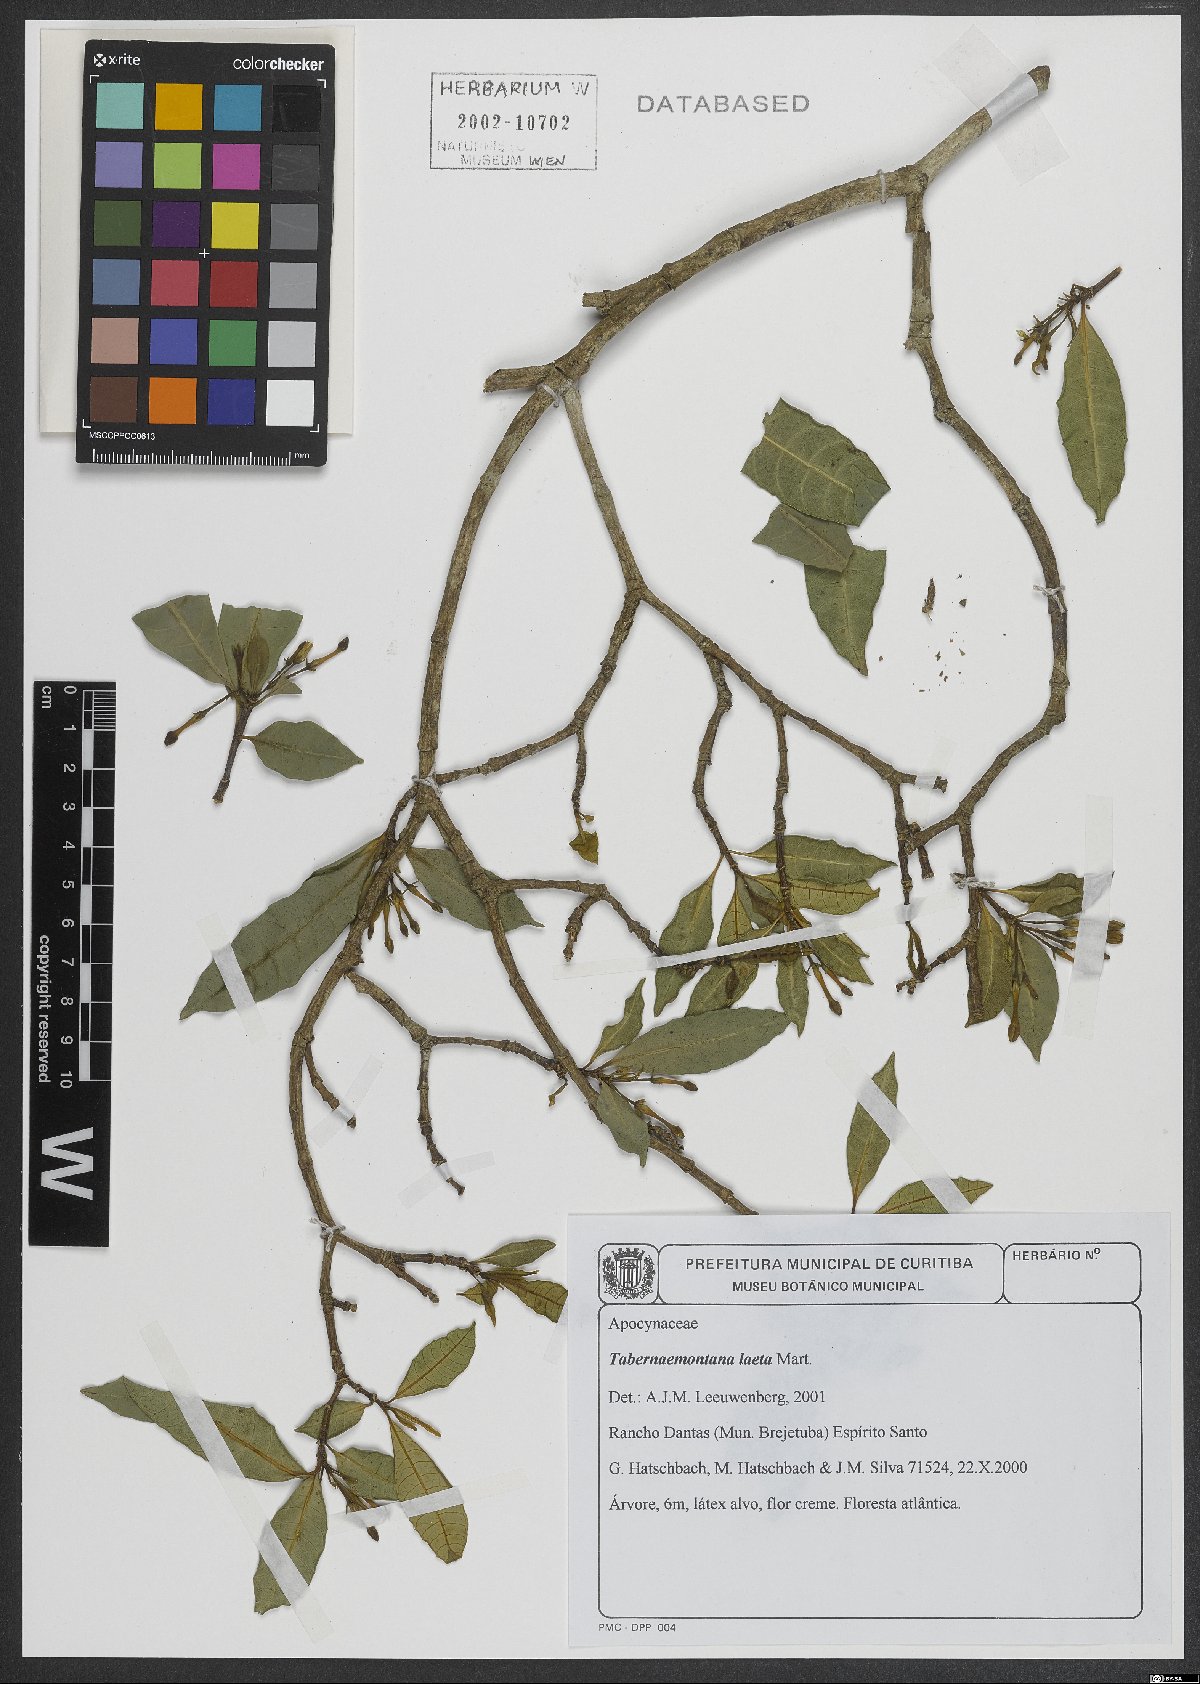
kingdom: Plantae
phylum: Tracheophyta
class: Magnoliopsida
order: Gentianales
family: Apocynaceae
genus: Tabernaemontana
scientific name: Tabernaemontana laeta
